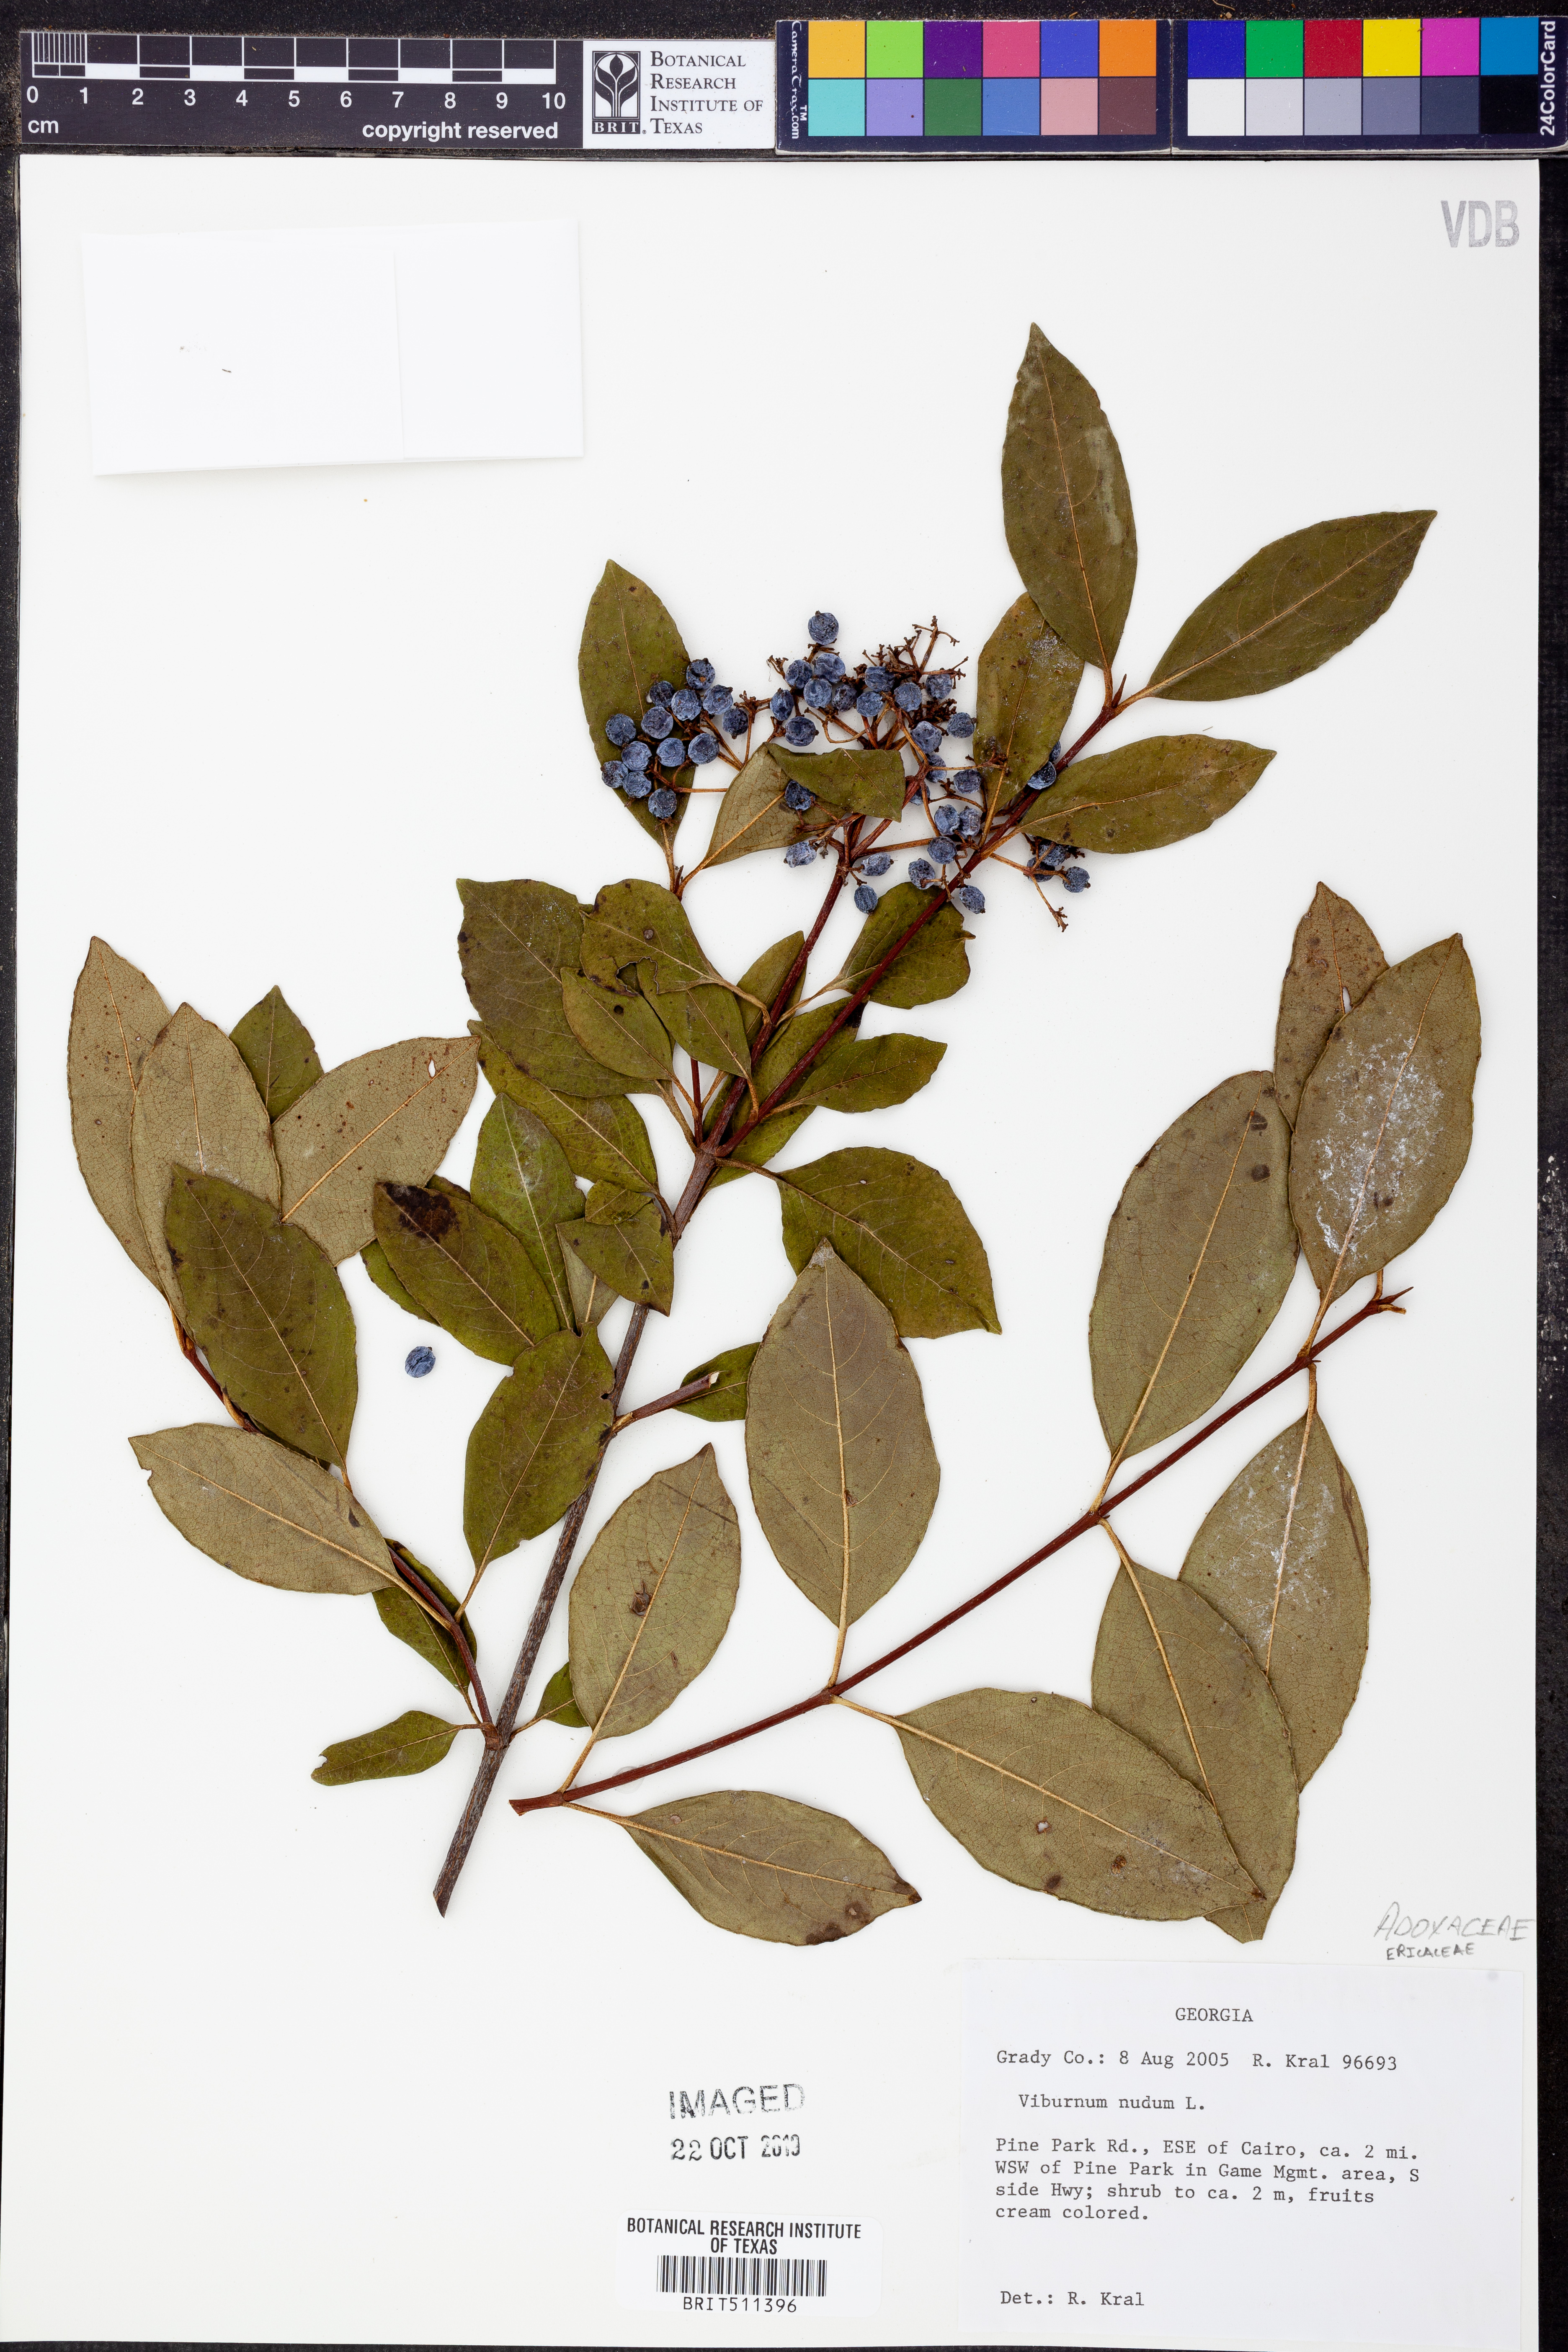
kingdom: Plantae
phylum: Tracheophyta
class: Magnoliopsida
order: Dipsacales
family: Viburnaceae
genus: Viburnum
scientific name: Viburnum nudum
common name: Possum haw
